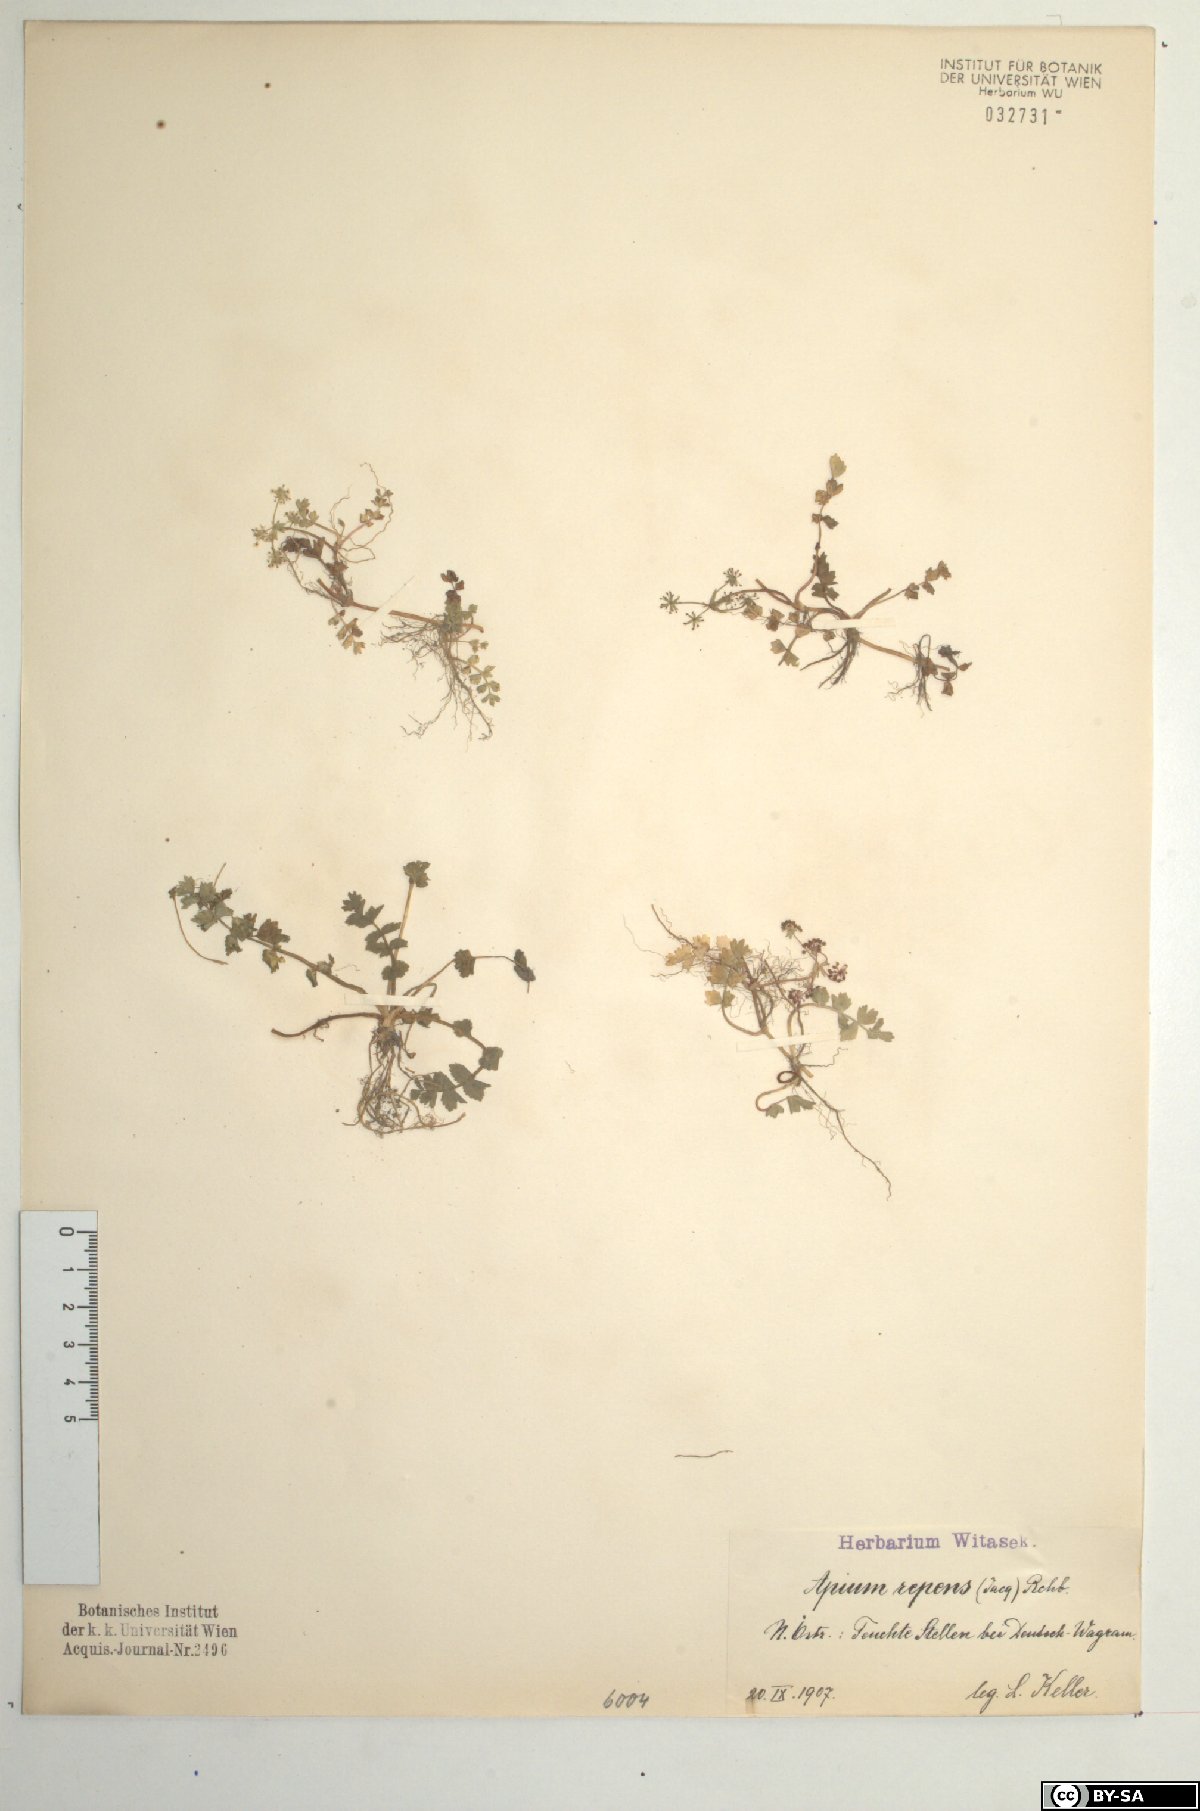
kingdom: Plantae
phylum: Tracheophyta
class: Magnoliopsida
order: Apiales
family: Apiaceae
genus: Helosciadium
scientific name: Helosciadium repens
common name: Creeping marshwort
